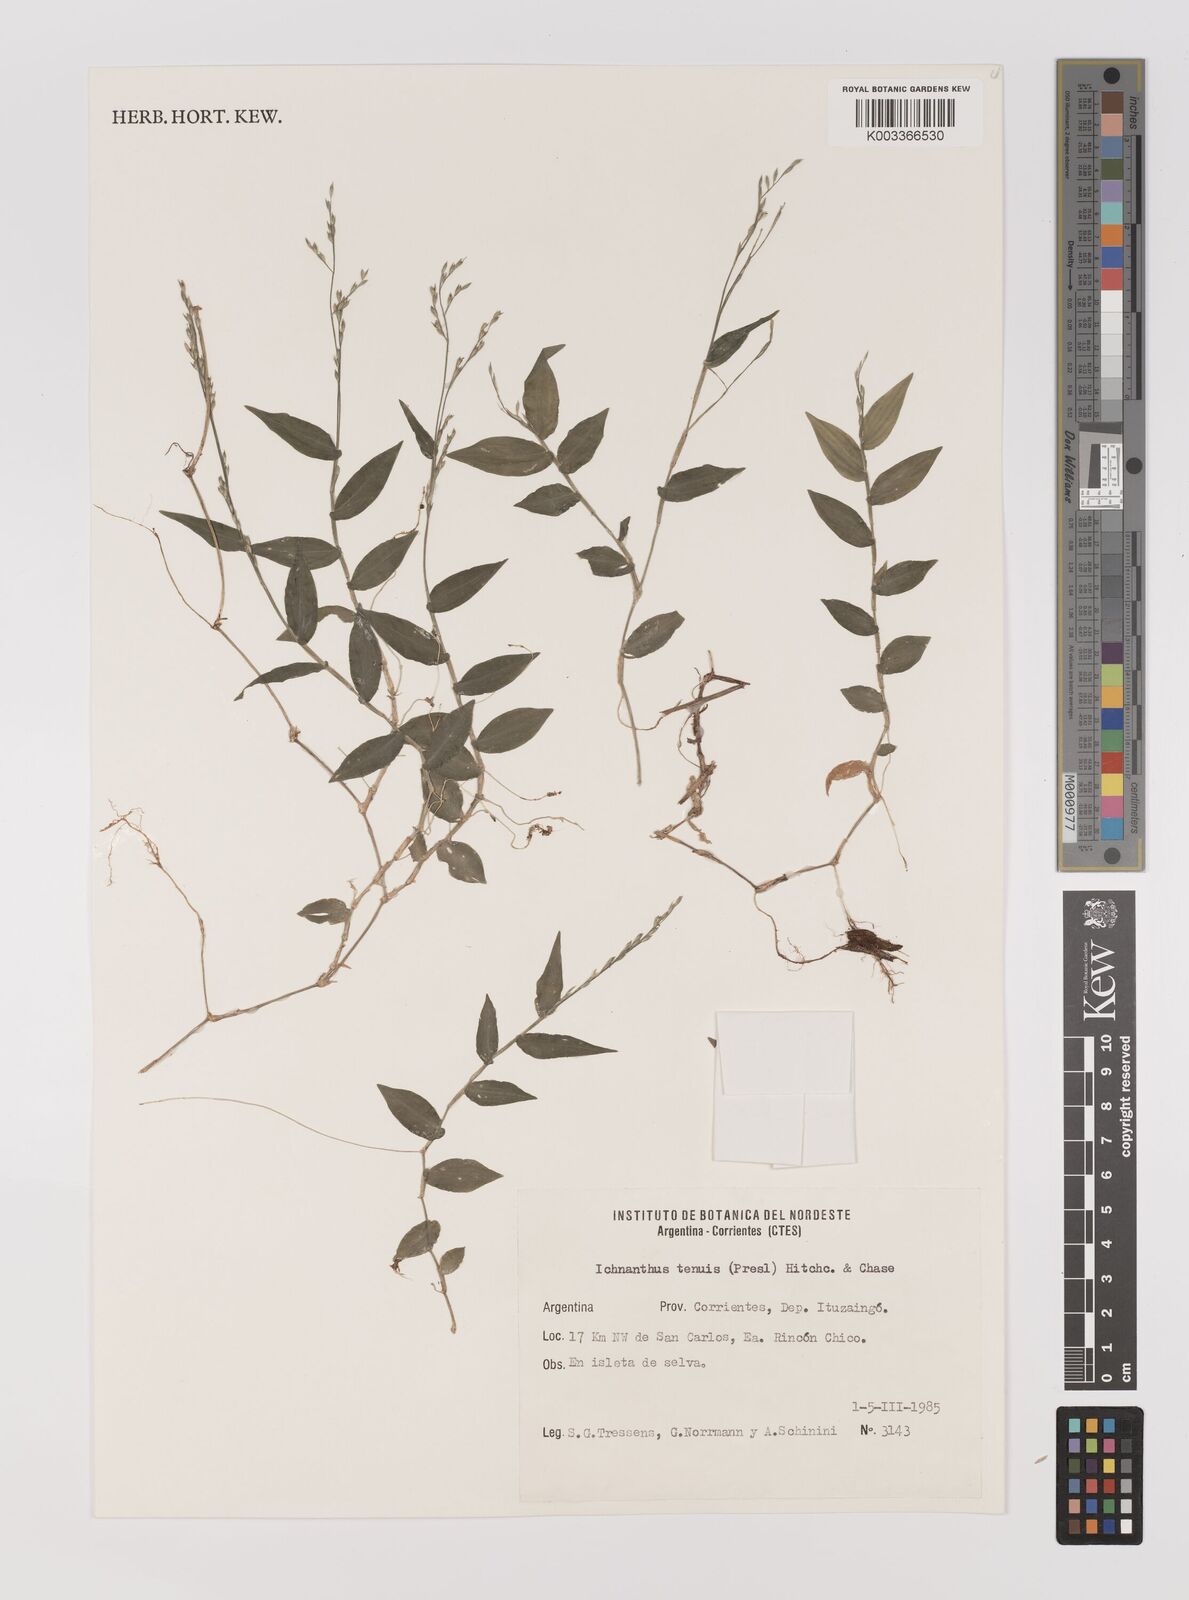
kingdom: Plantae
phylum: Tracheophyta
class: Liliopsida
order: Poales
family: Poaceae
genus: Ichnanthus
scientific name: Ichnanthus tenuis
